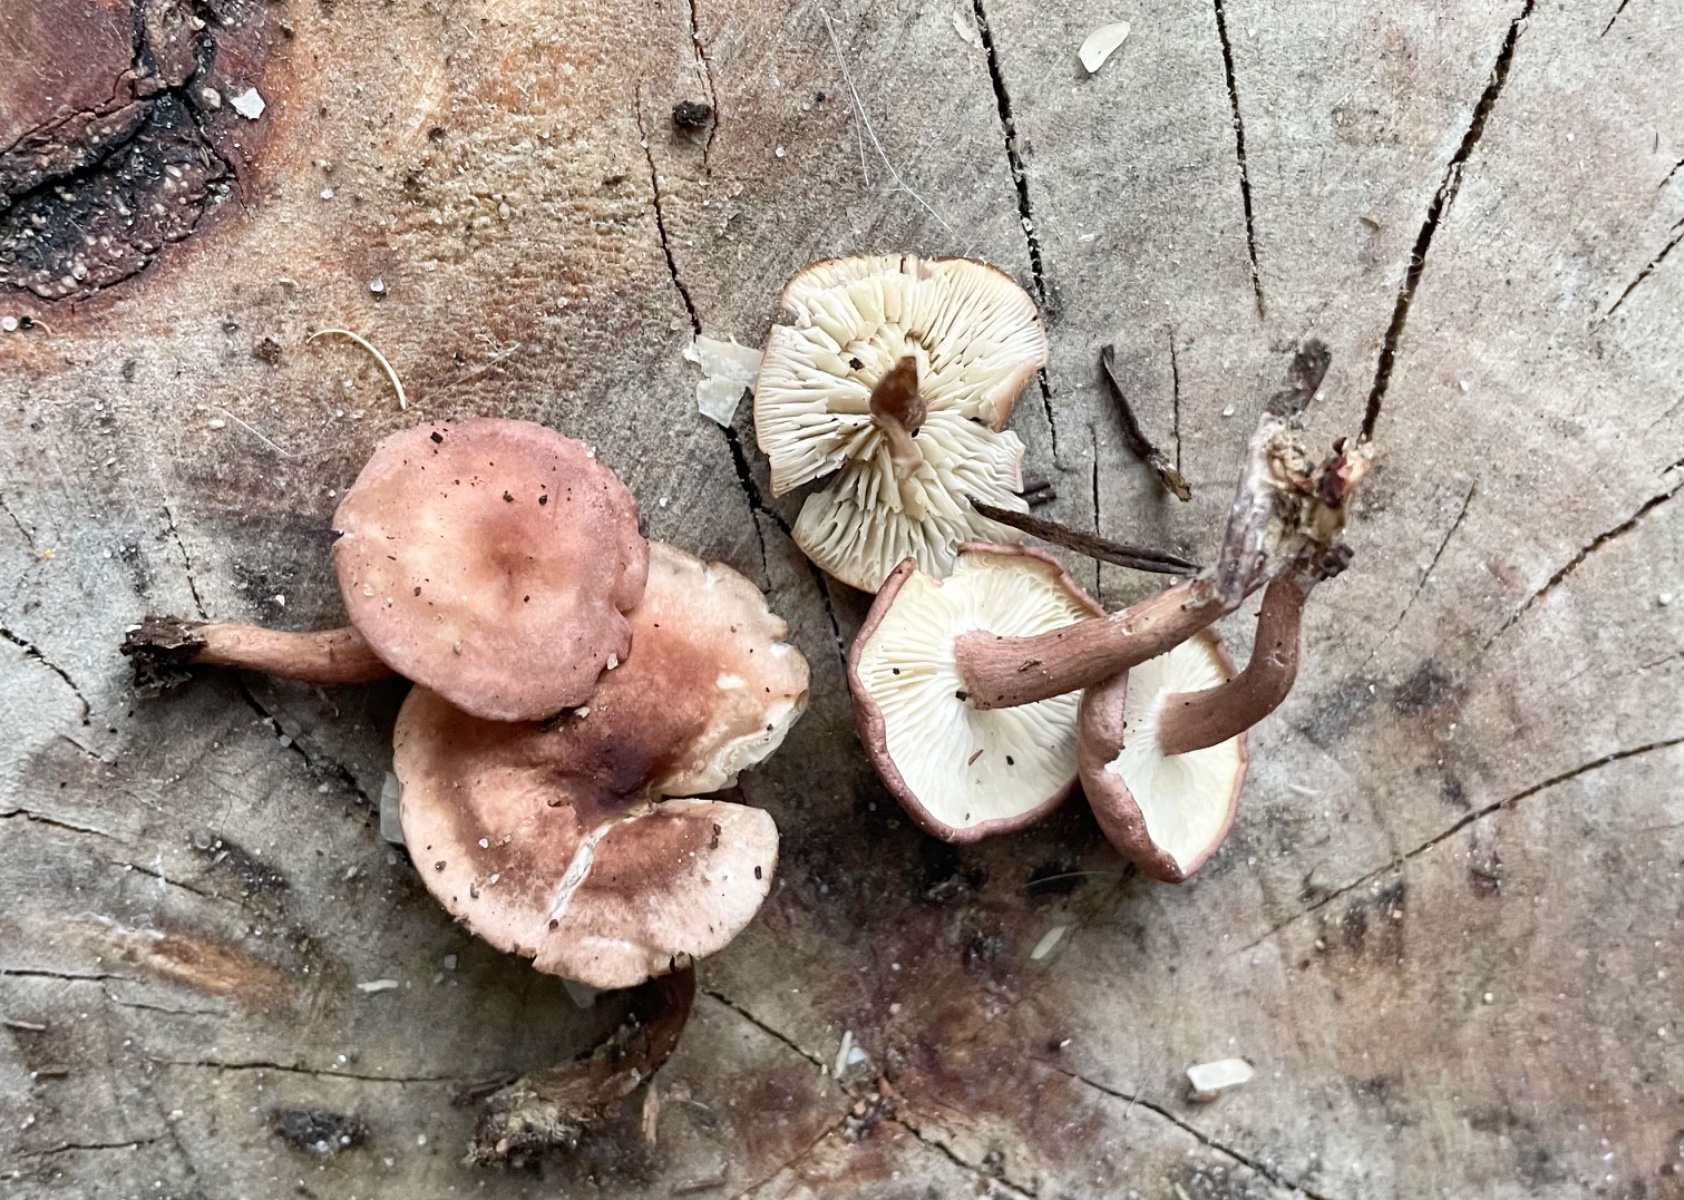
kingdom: Fungi
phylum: Basidiomycota
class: Agaricomycetes
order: Agaricales
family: Lyophyllaceae
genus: Calocybe
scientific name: Calocybe carnea
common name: rosa fagerhat
